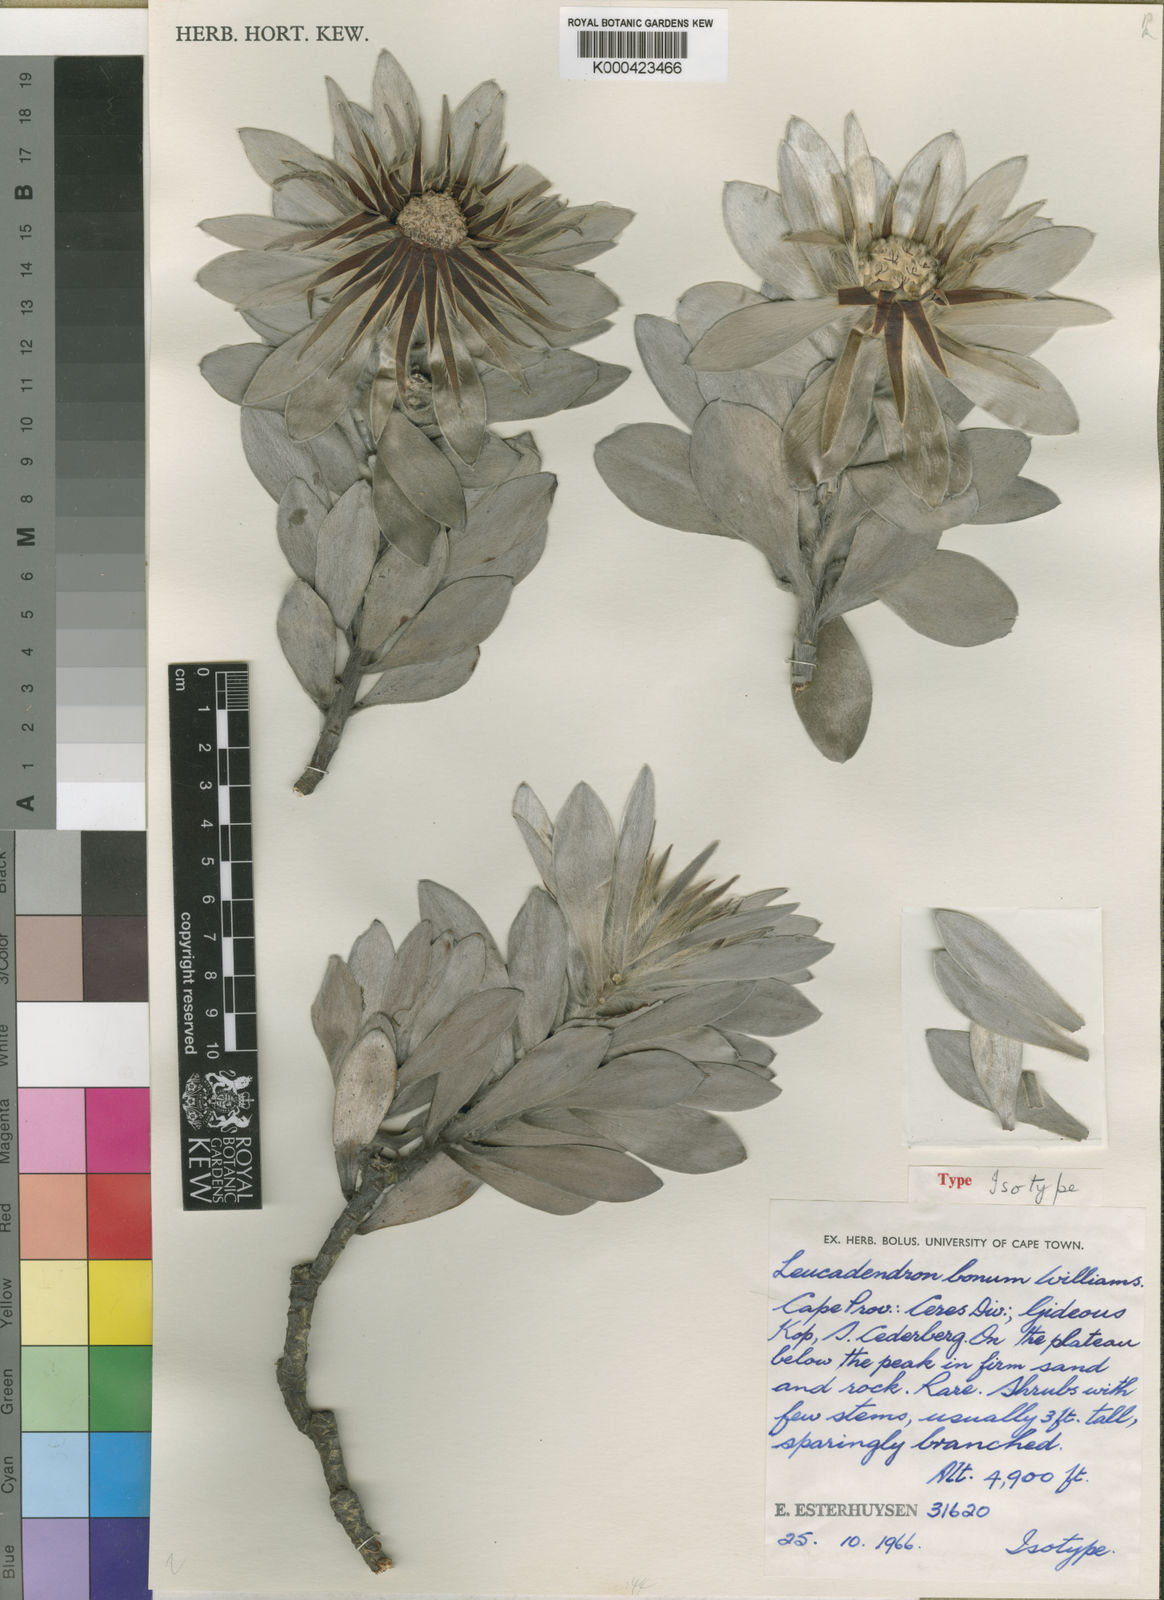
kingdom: Plantae
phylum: Tracheophyta
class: Magnoliopsida
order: Proteales
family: Proteaceae
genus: Leucadendron
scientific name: Leucadendron bonum
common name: Gideonskop conebush
